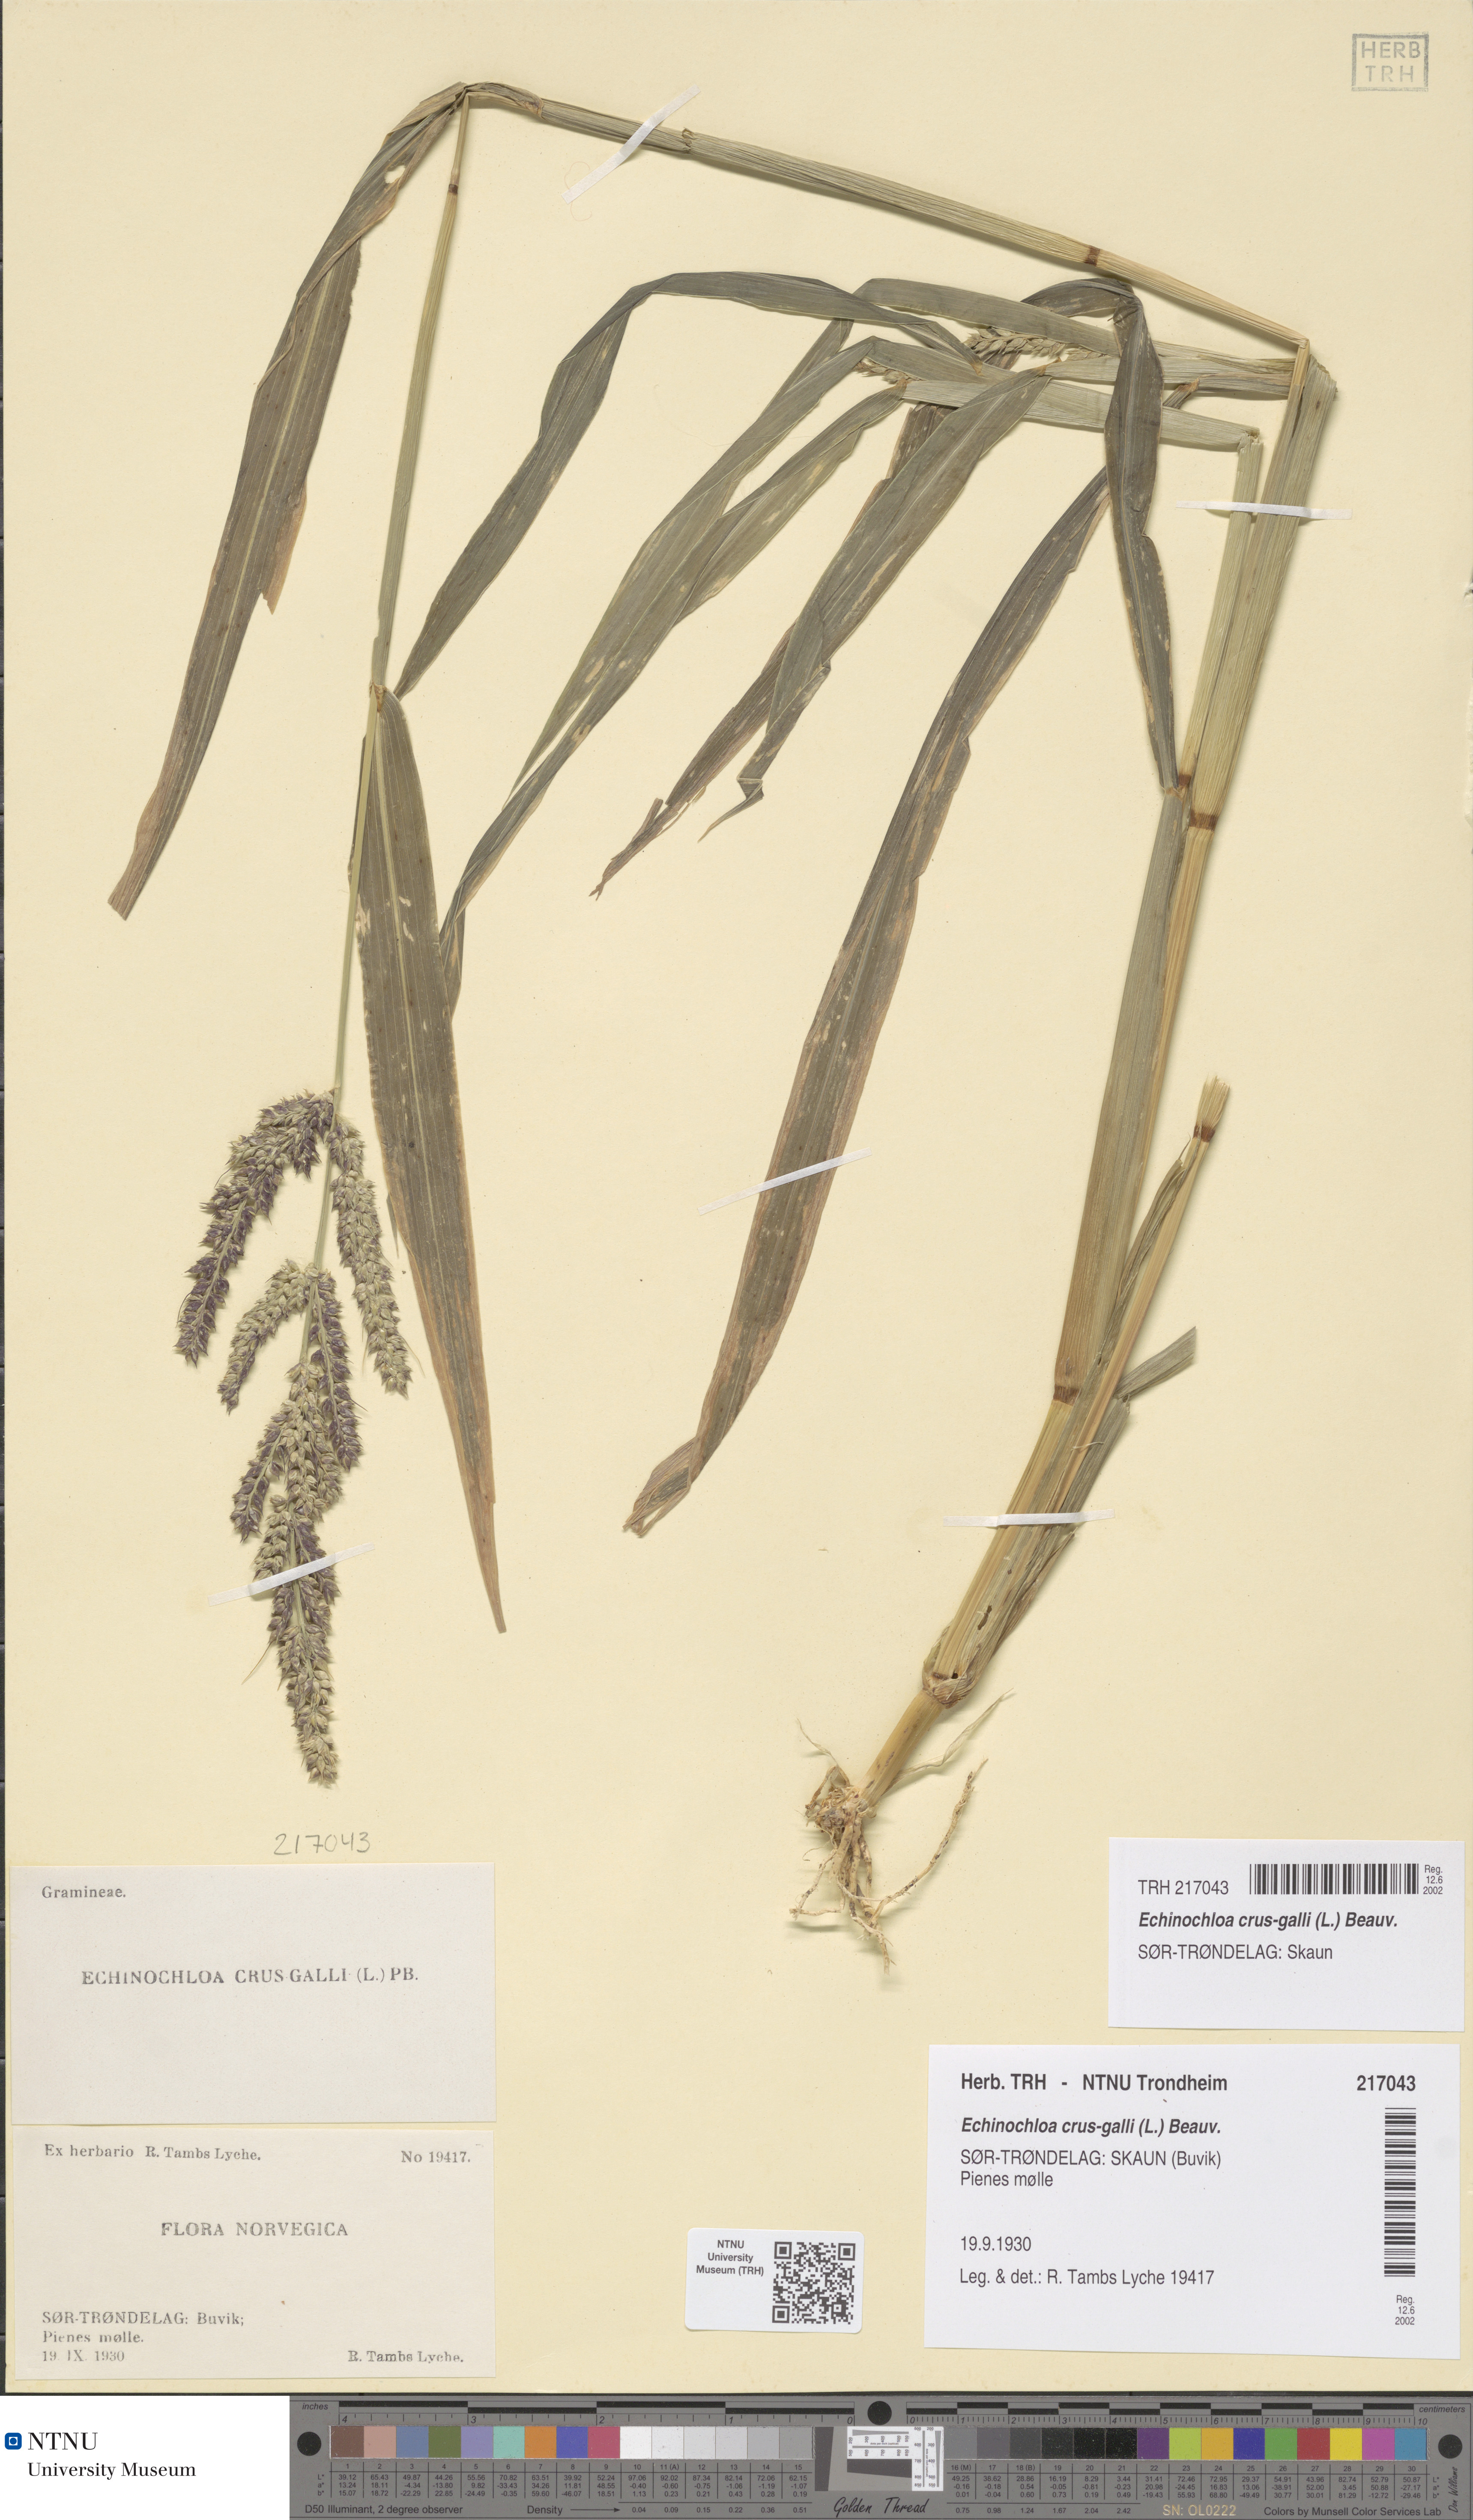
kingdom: Plantae
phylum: Tracheophyta
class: Liliopsida
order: Poales
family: Poaceae
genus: Echinochloa
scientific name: Echinochloa crus-galli
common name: Cockspur
